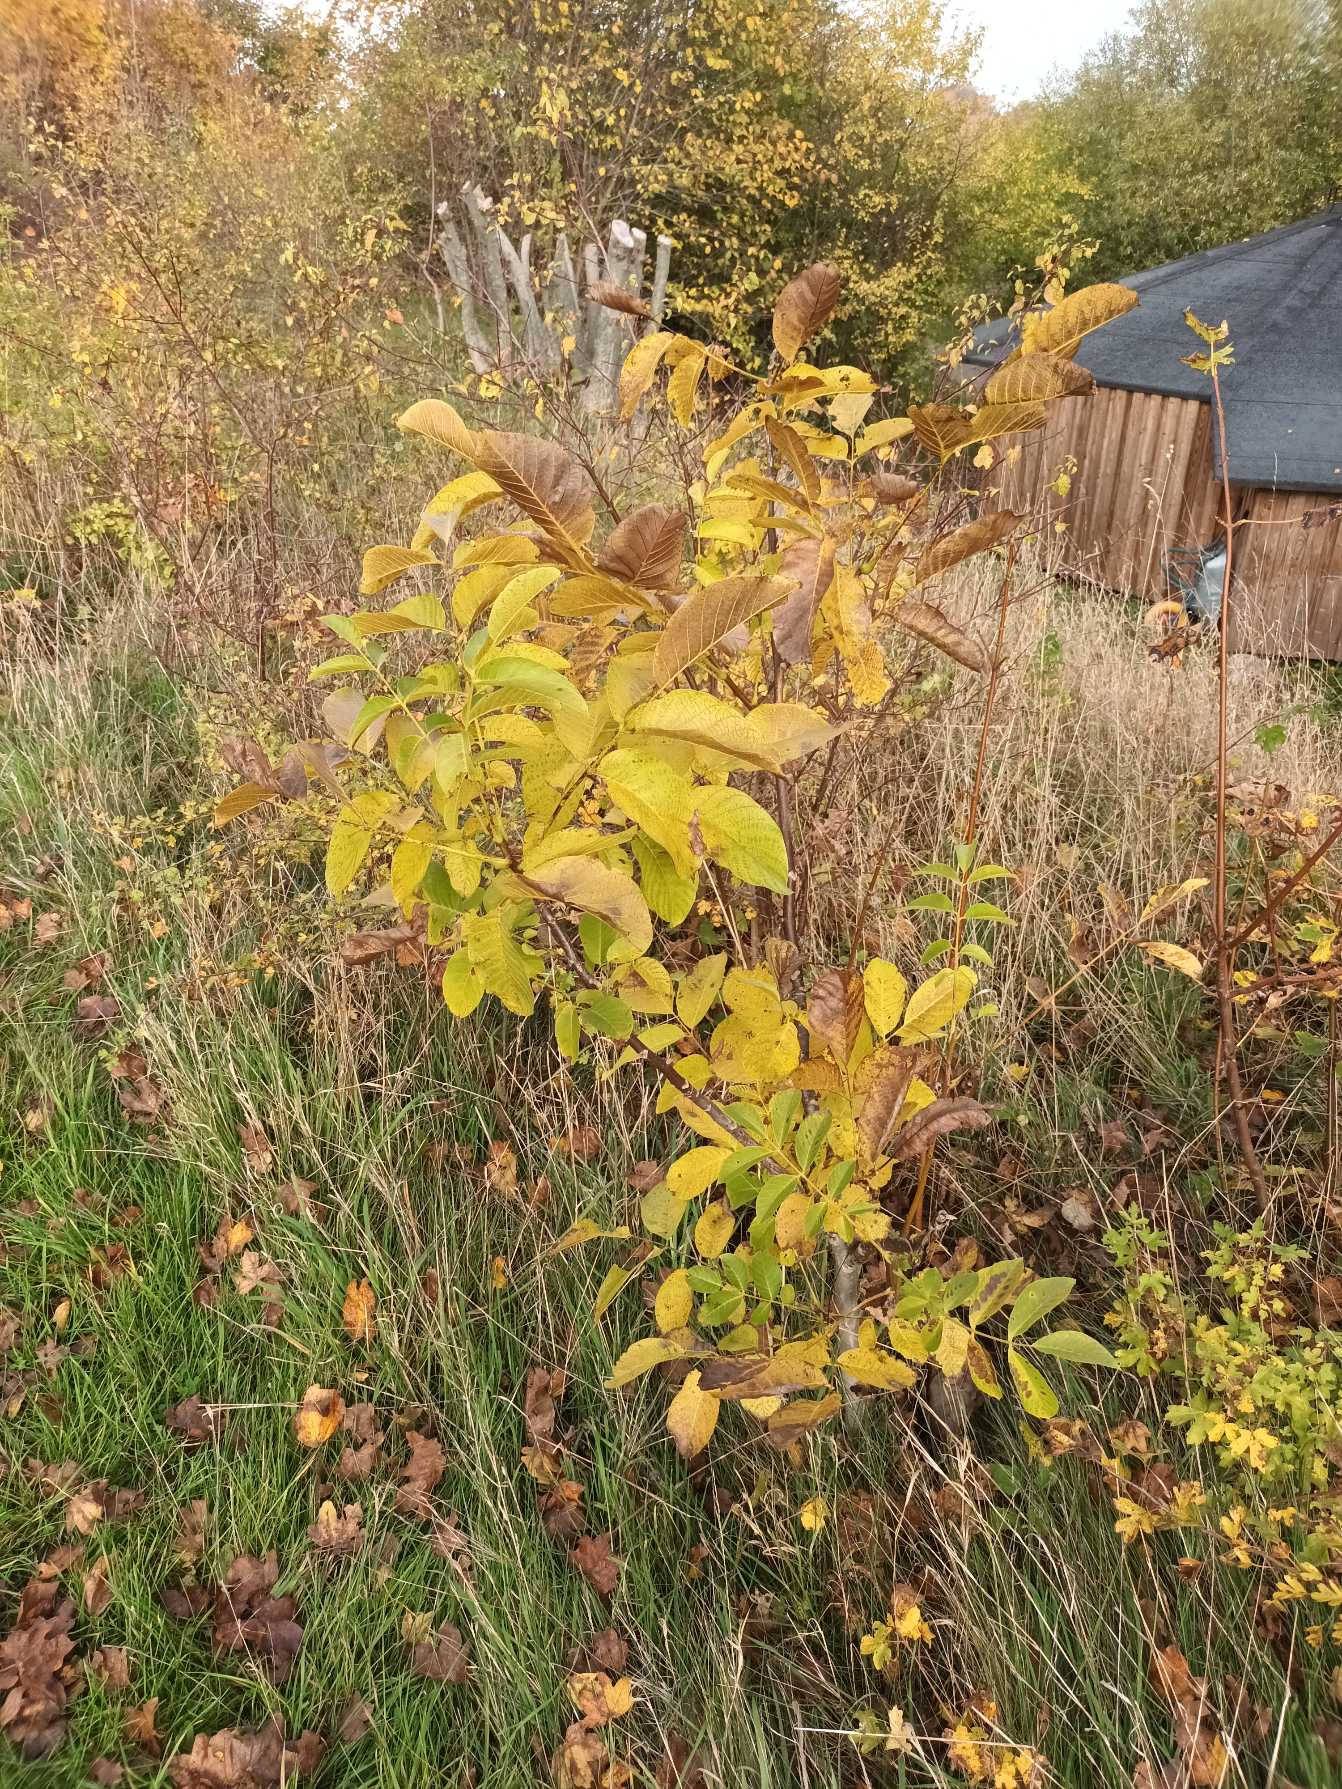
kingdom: Plantae
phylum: Tracheophyta
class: Magnoliopsida
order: Fagales
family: Juglandaceae
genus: Juglans
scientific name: Juglans regia
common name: Almindelig valnød
